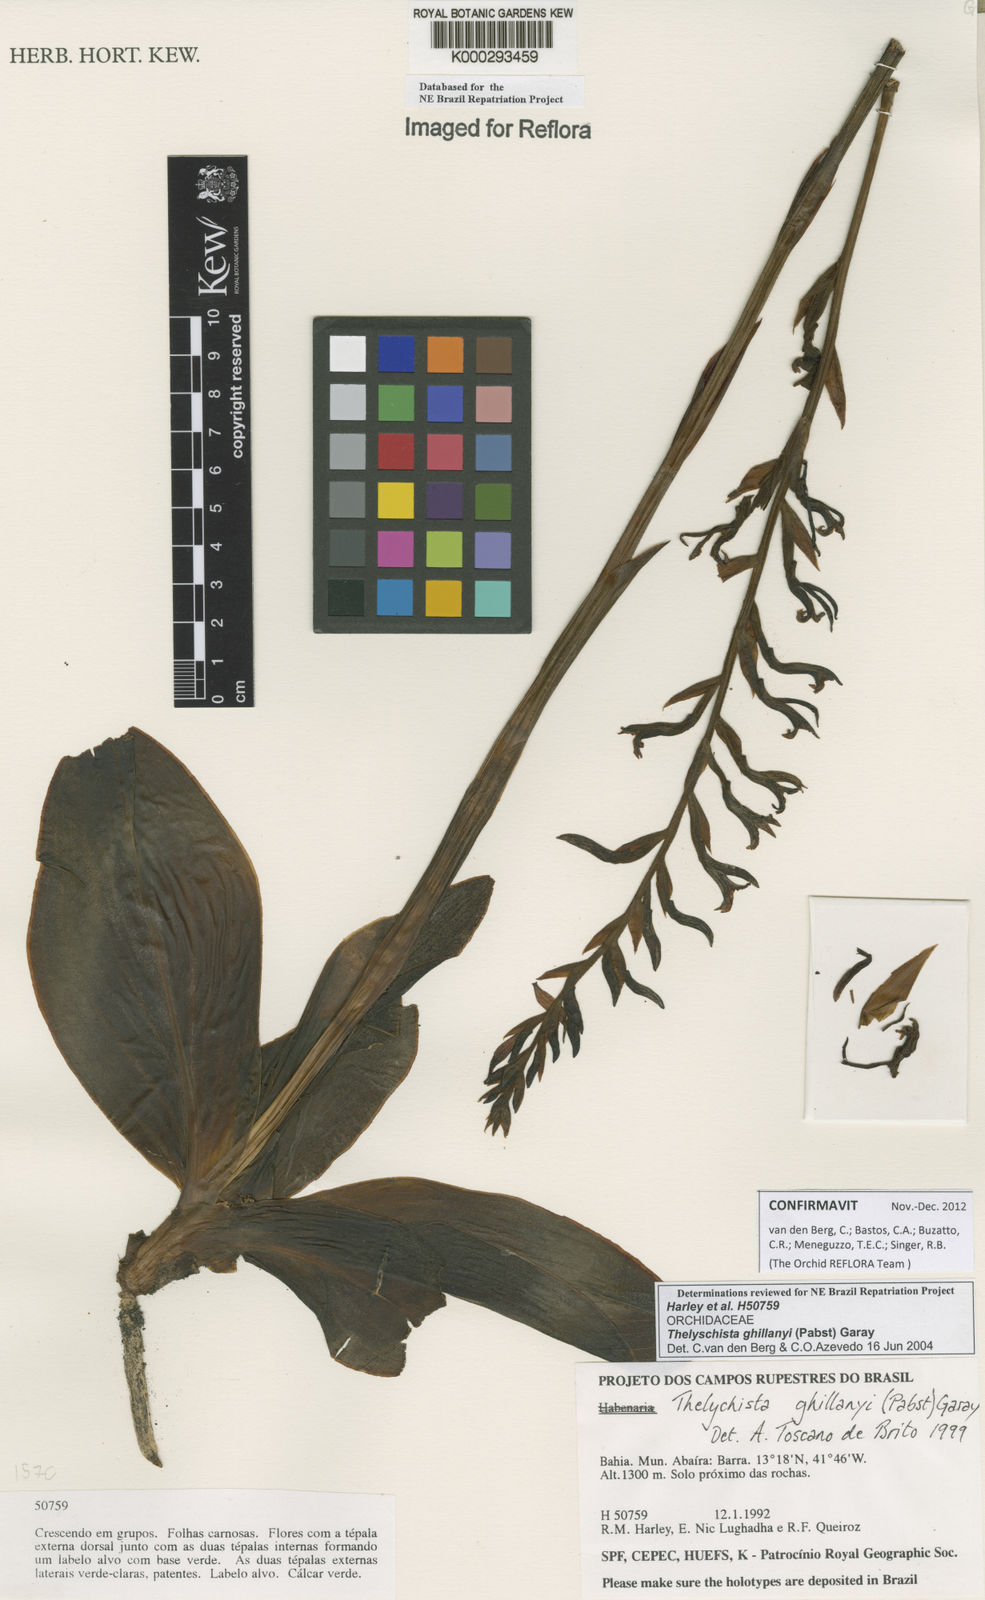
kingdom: Plantae
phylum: Tracheophyta
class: Liliopsida
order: Asparagales
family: Orchidaceae
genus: Thelyschista
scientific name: Thelyschista ghillanyi
